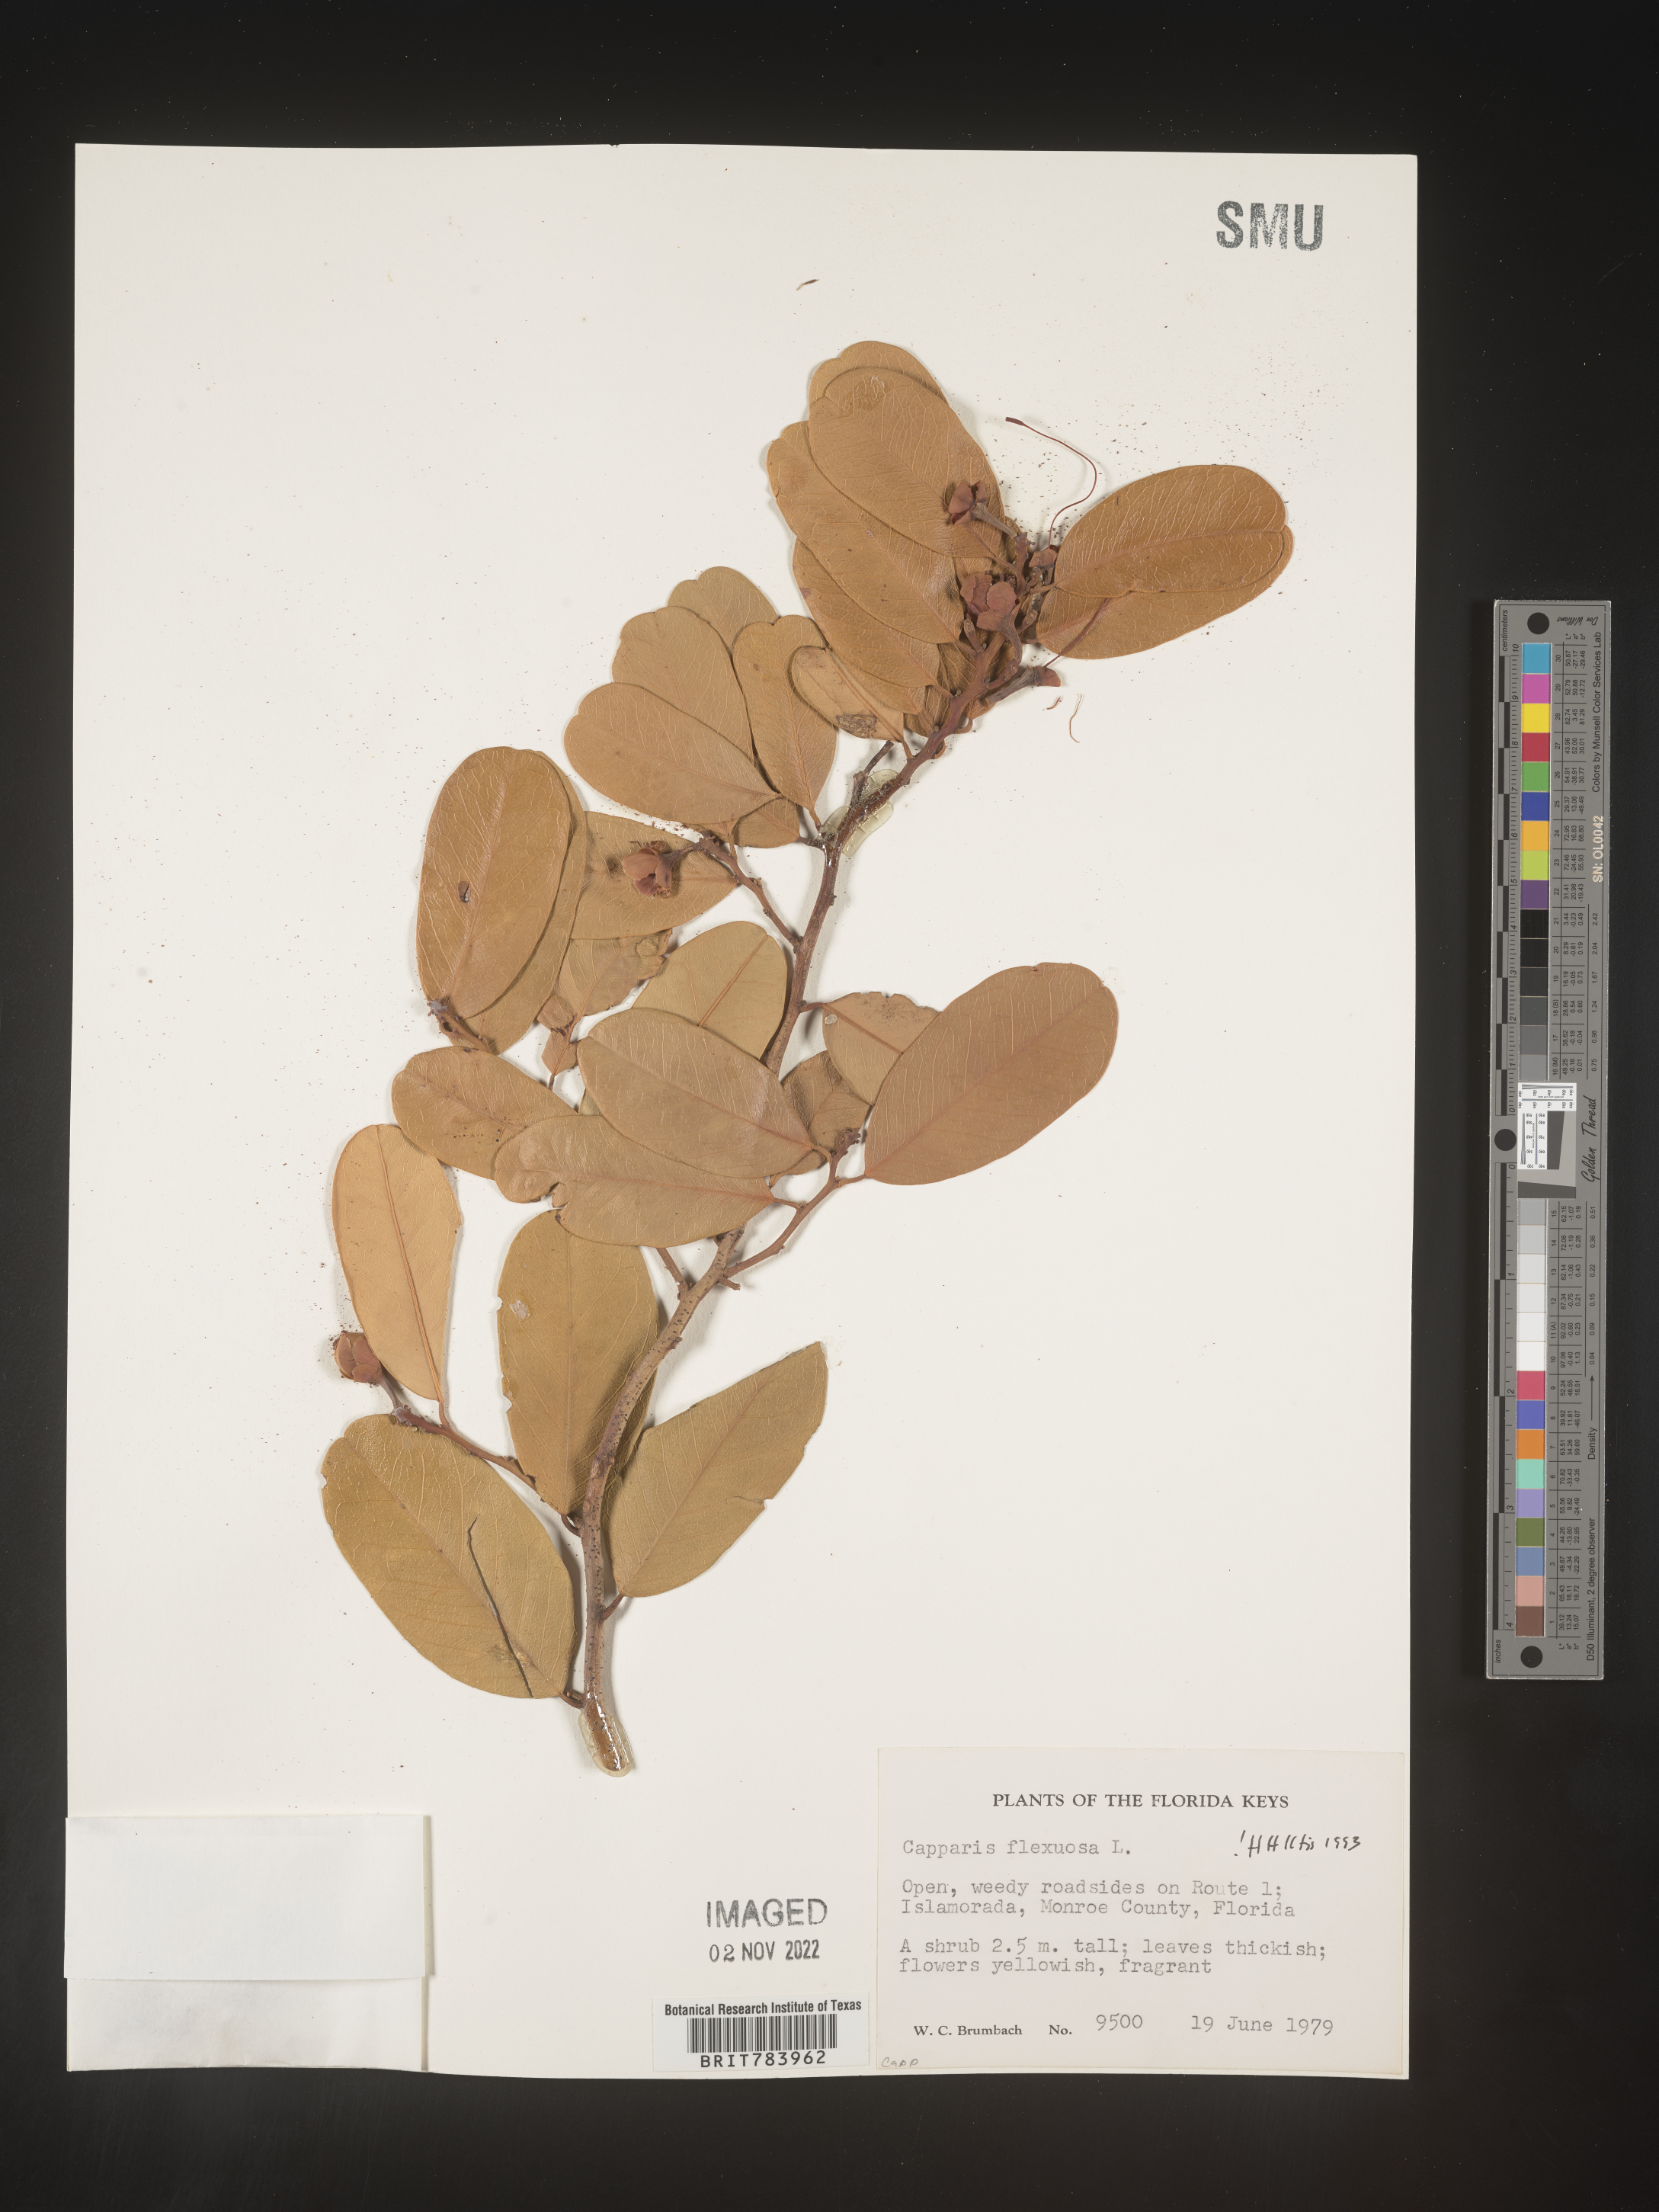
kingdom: Plantae
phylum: Tracheophyta
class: Magnoliopsida
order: Brassicales
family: Capparaceae
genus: Capparis
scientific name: Capparis
